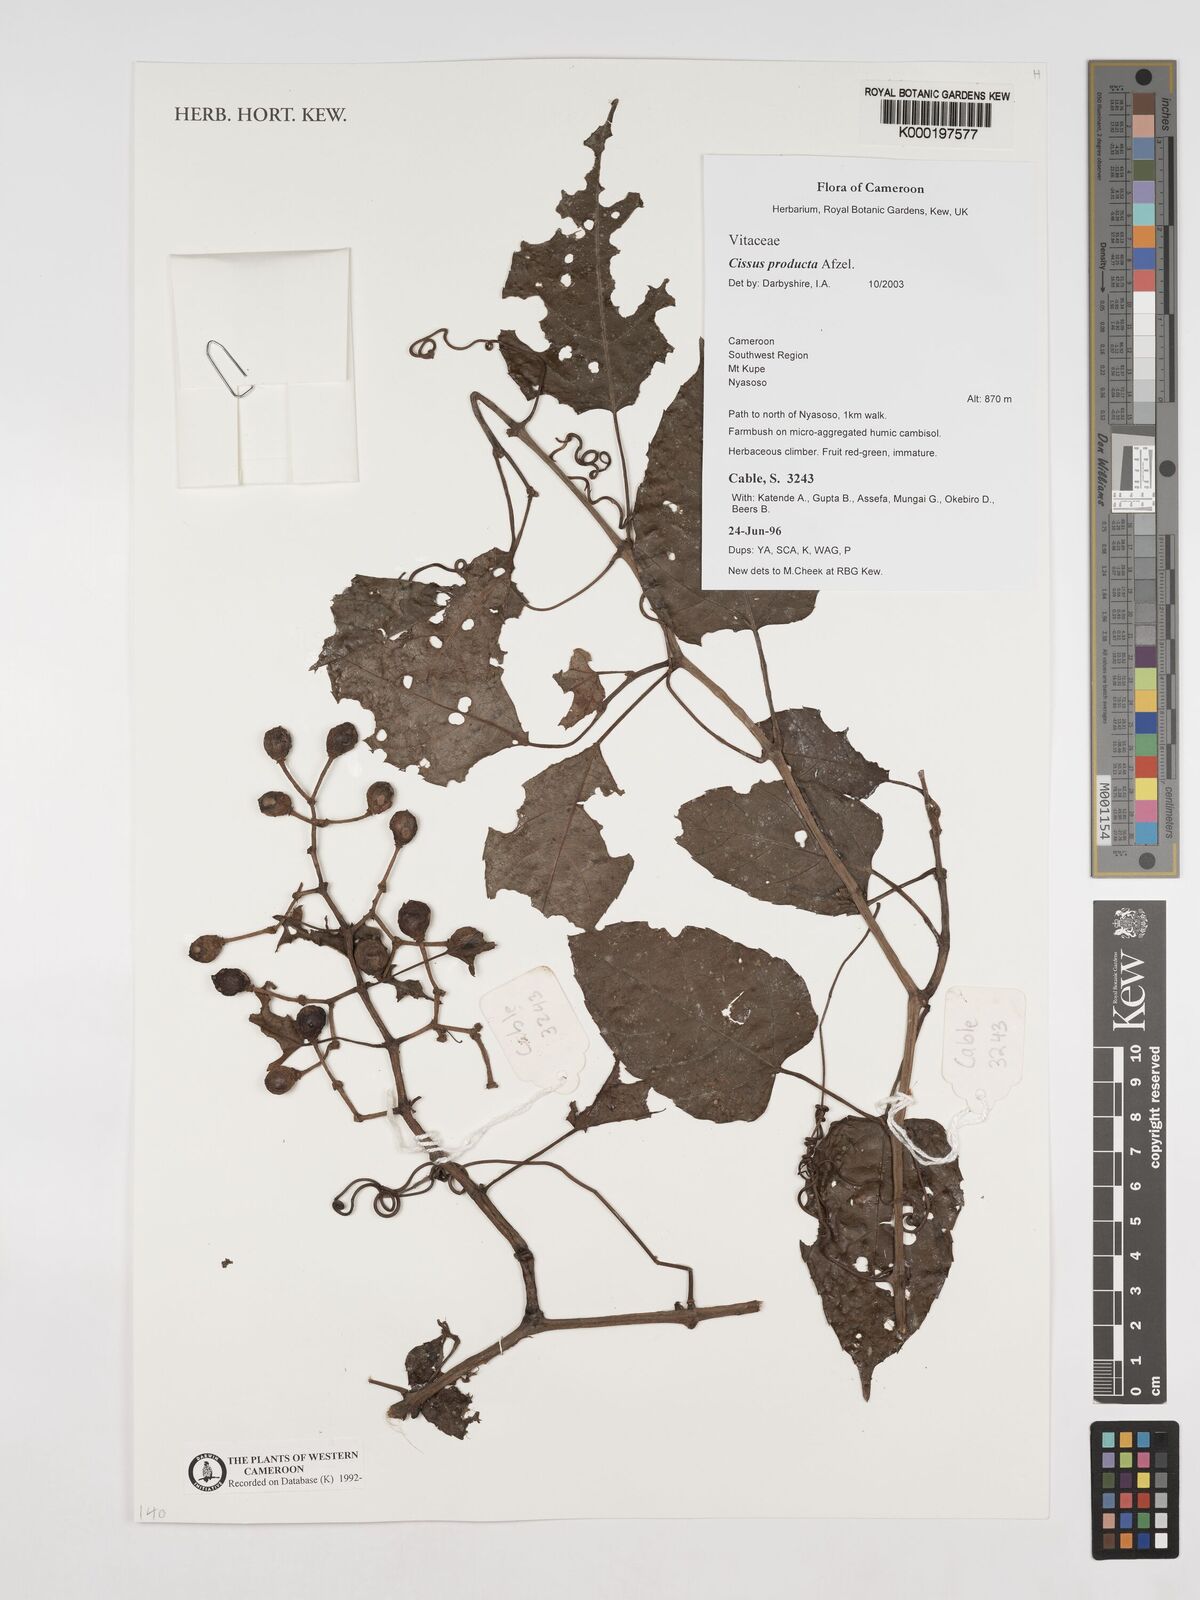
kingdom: Plantae
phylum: Tracheophyta
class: Magnoliopsida
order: Vitales
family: Vitaceae
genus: Cissus
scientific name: Cissus producta
